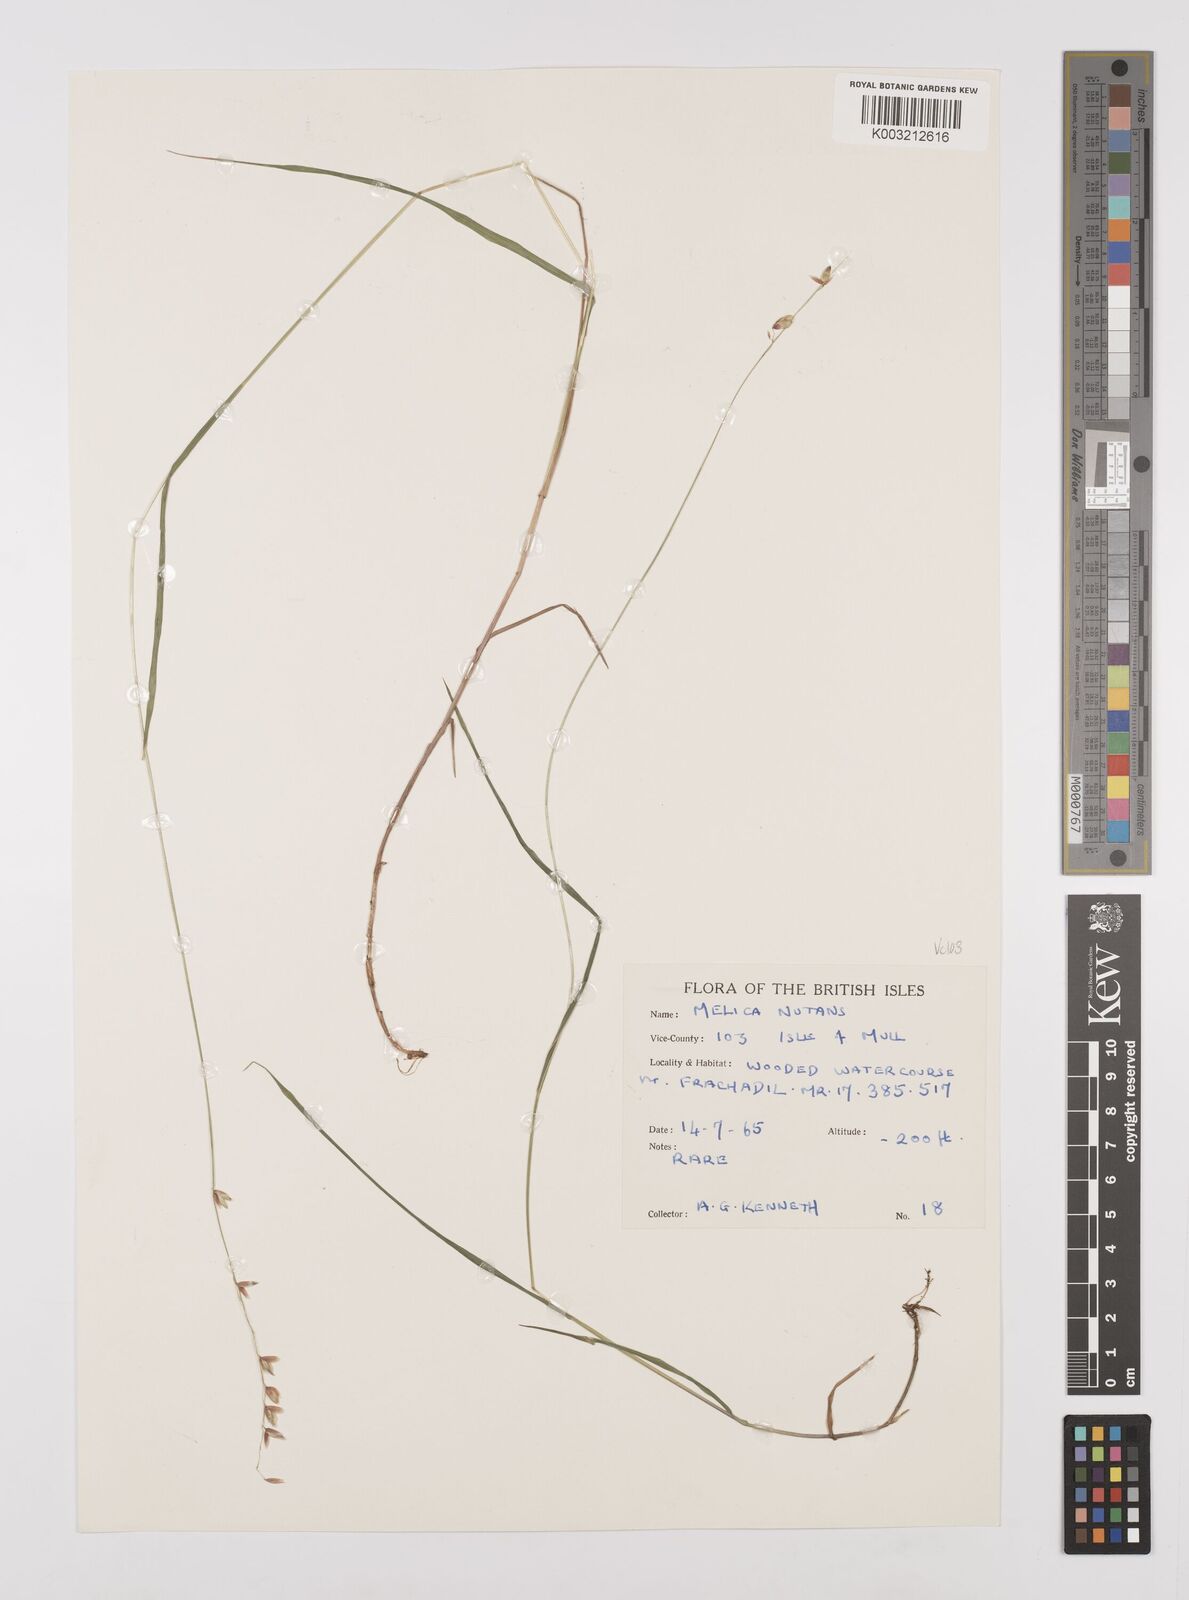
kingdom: Plantae
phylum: Tracheophyta
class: Liliopsida
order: Poales
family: Poaceae
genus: Melica
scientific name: Melica
